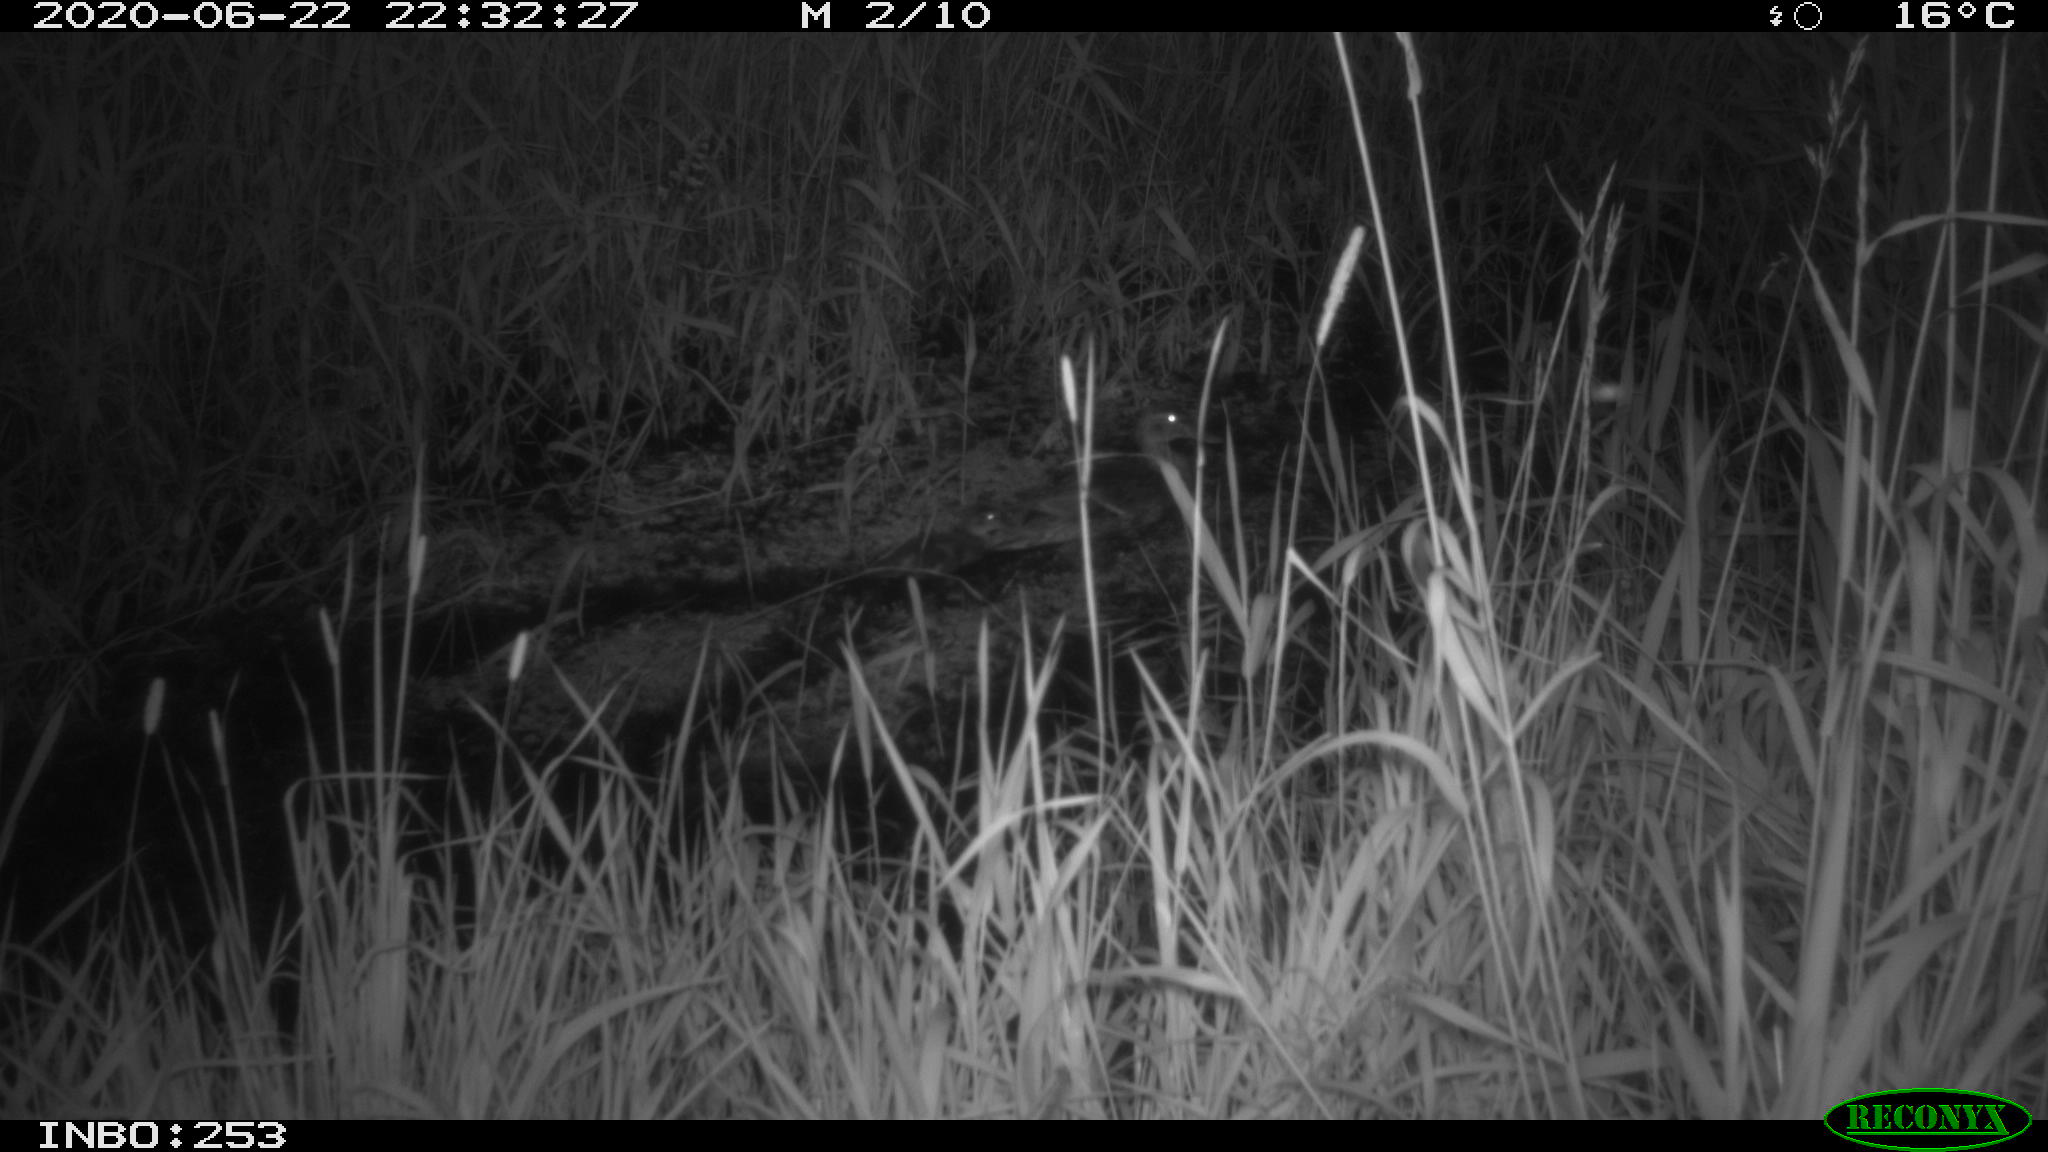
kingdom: Animalia
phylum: Chordata
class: Aves
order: Anseriformes
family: Anatidae
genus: Anas
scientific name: Anas platyrhynchos
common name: Mallard
